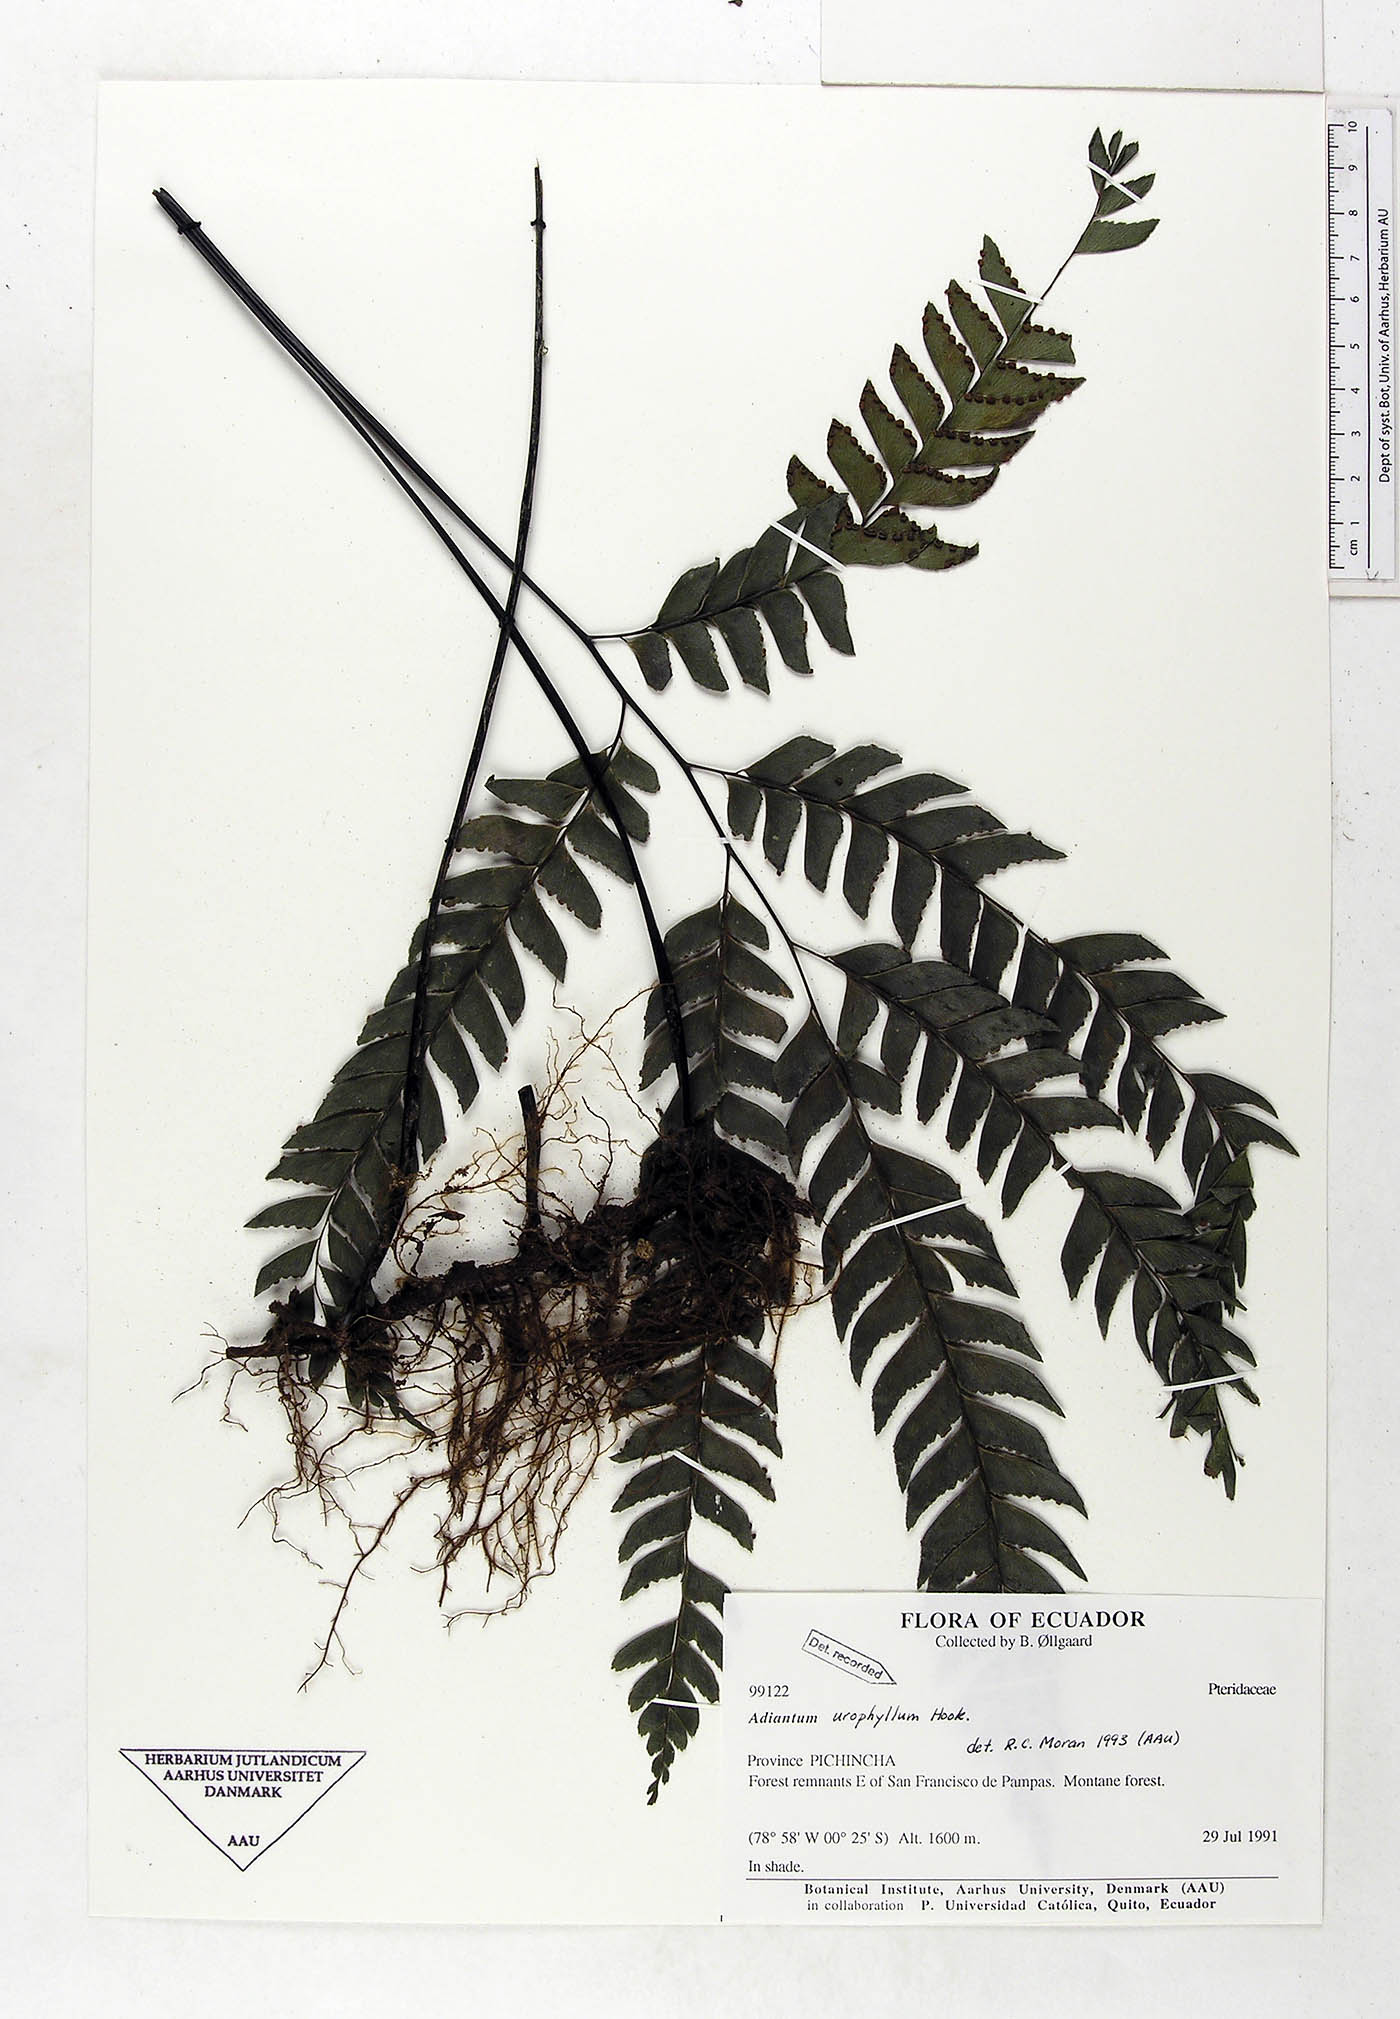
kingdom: Plantae
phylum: Tracheophyta
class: Polypodiopsida
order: Polypodiales
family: Pteridaceae
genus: Adiantum
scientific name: Adiantum urophyllum
